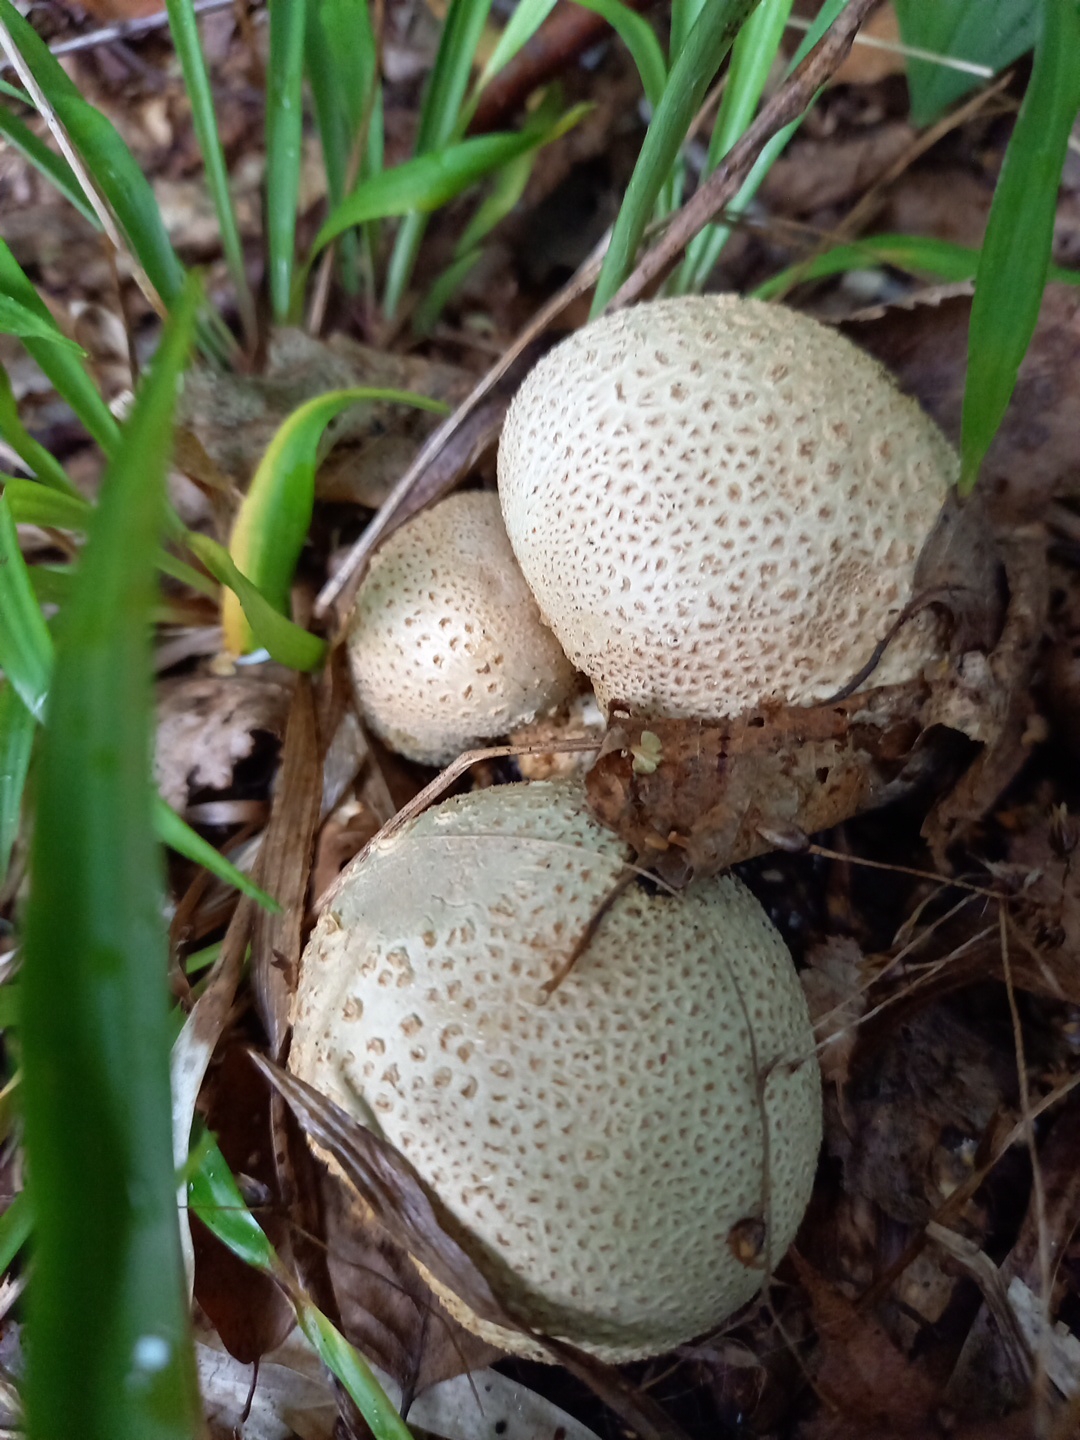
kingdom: Fungi
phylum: Basidiomycota
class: Agaricomycetes
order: Boletales
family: Sclerodermataceae
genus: Scleroderma
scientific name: Scleroderma citrinum
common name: almindelig bruskbold
